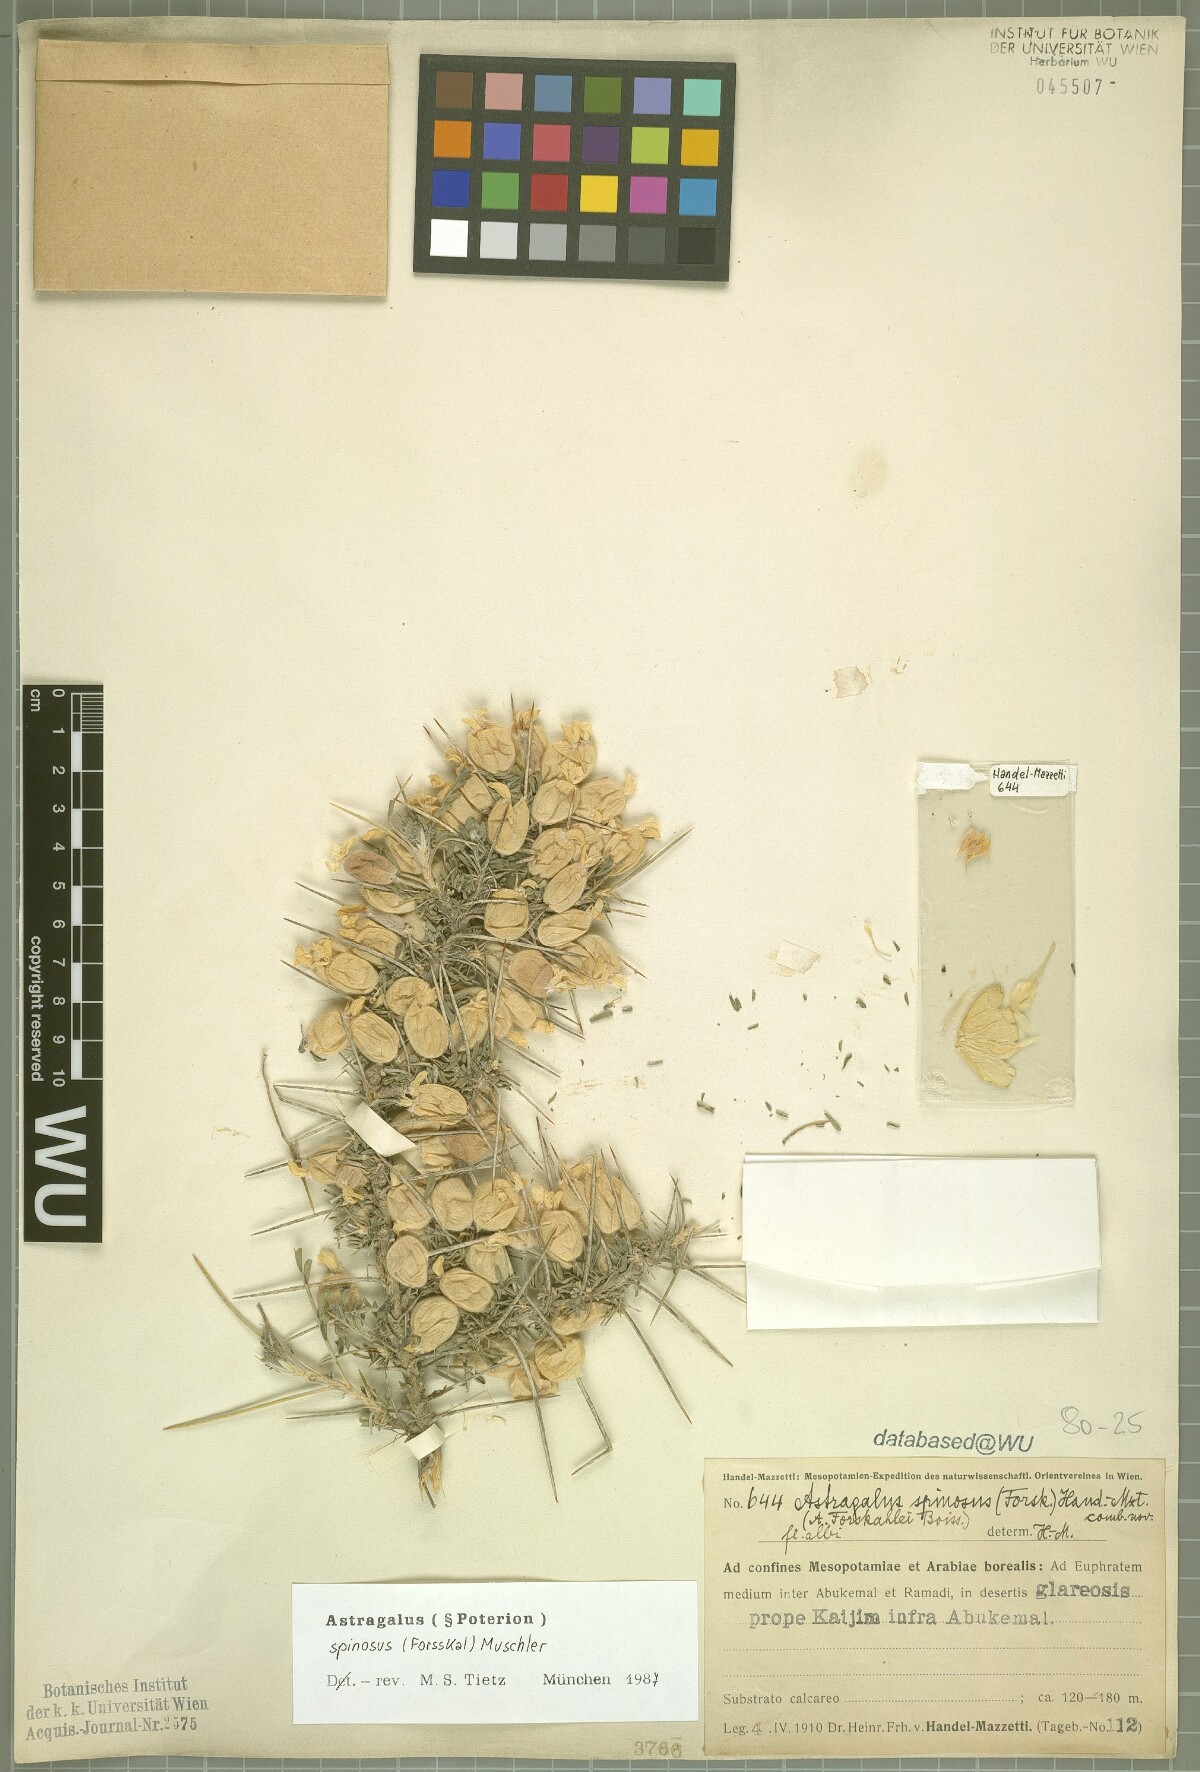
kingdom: Plantae
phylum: Tracheophyta
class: Magnoliopsida
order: Fabales
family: Fabaceae
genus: Astragalus
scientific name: Astragalus spinosus
